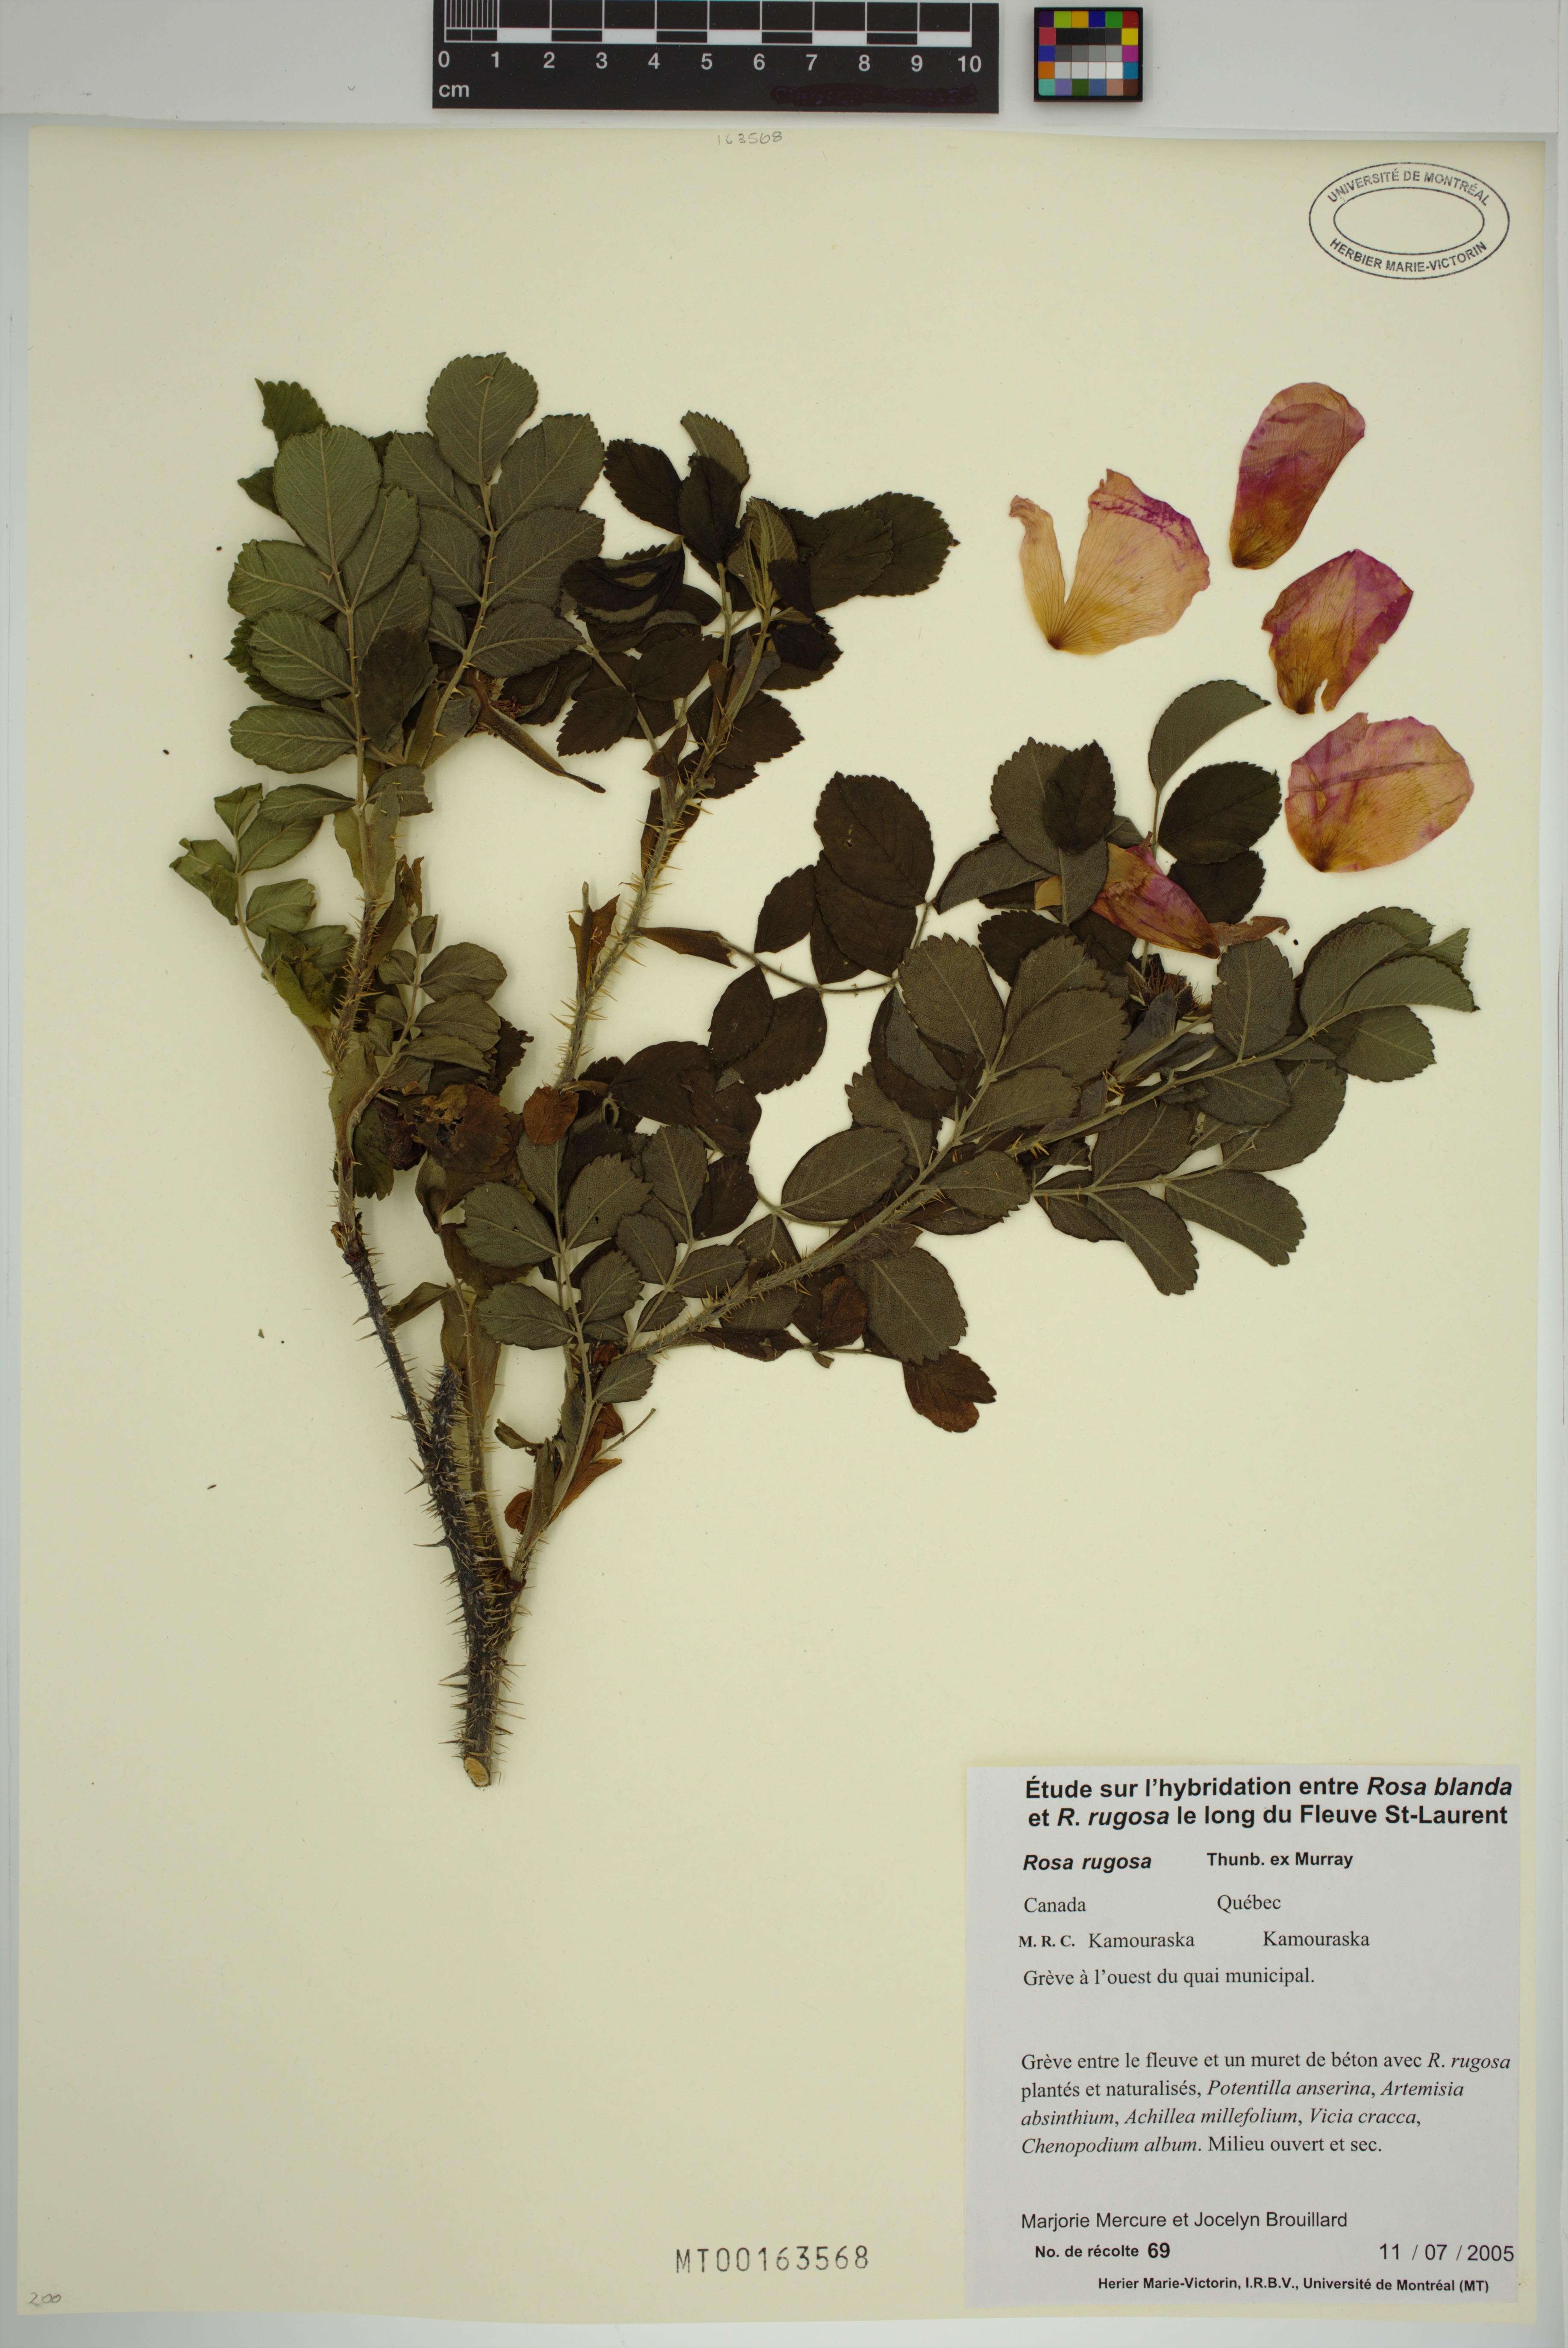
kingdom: Plantae
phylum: Tracheophyta
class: Magnoliopsida
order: Rosales
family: Rosaceae
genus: Rosa
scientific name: Rosa rugosa
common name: Japanese rose
